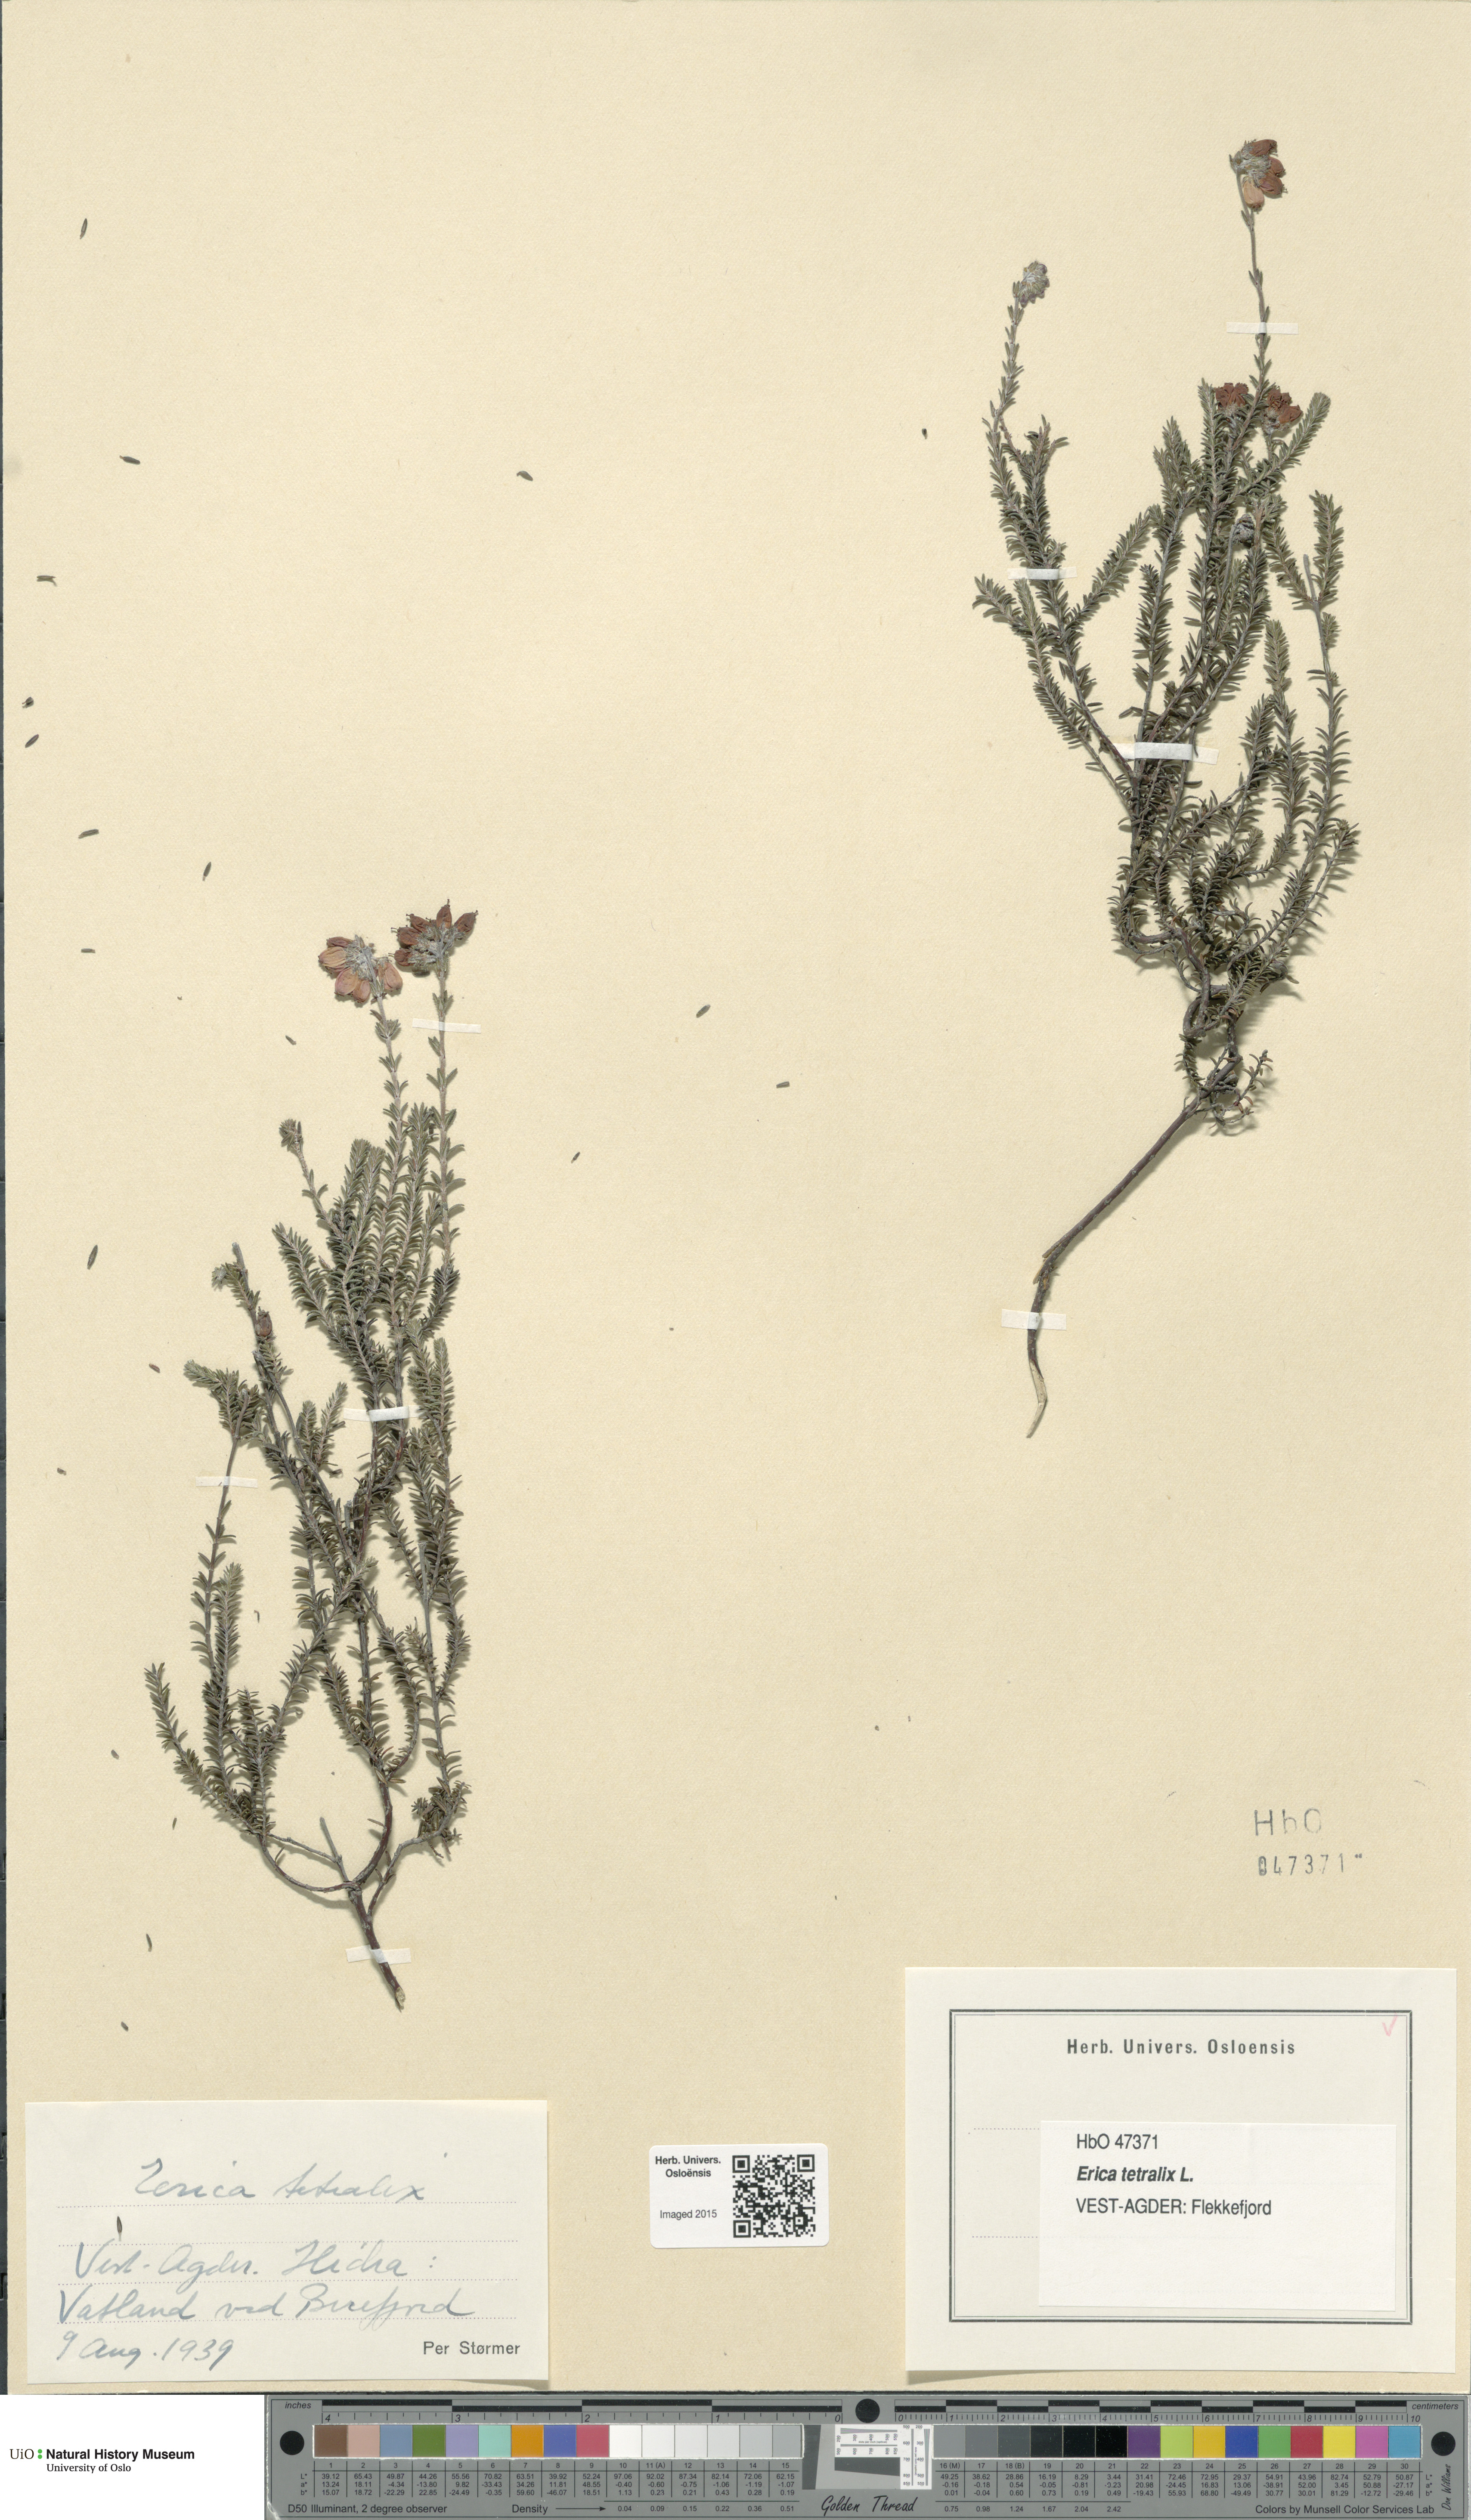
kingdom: Plantae
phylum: Tracheophyta
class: Magnoliopsida
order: Ericales
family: Ericaceae
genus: Erica
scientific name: Erica tetralix
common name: Cross-leaved heath
